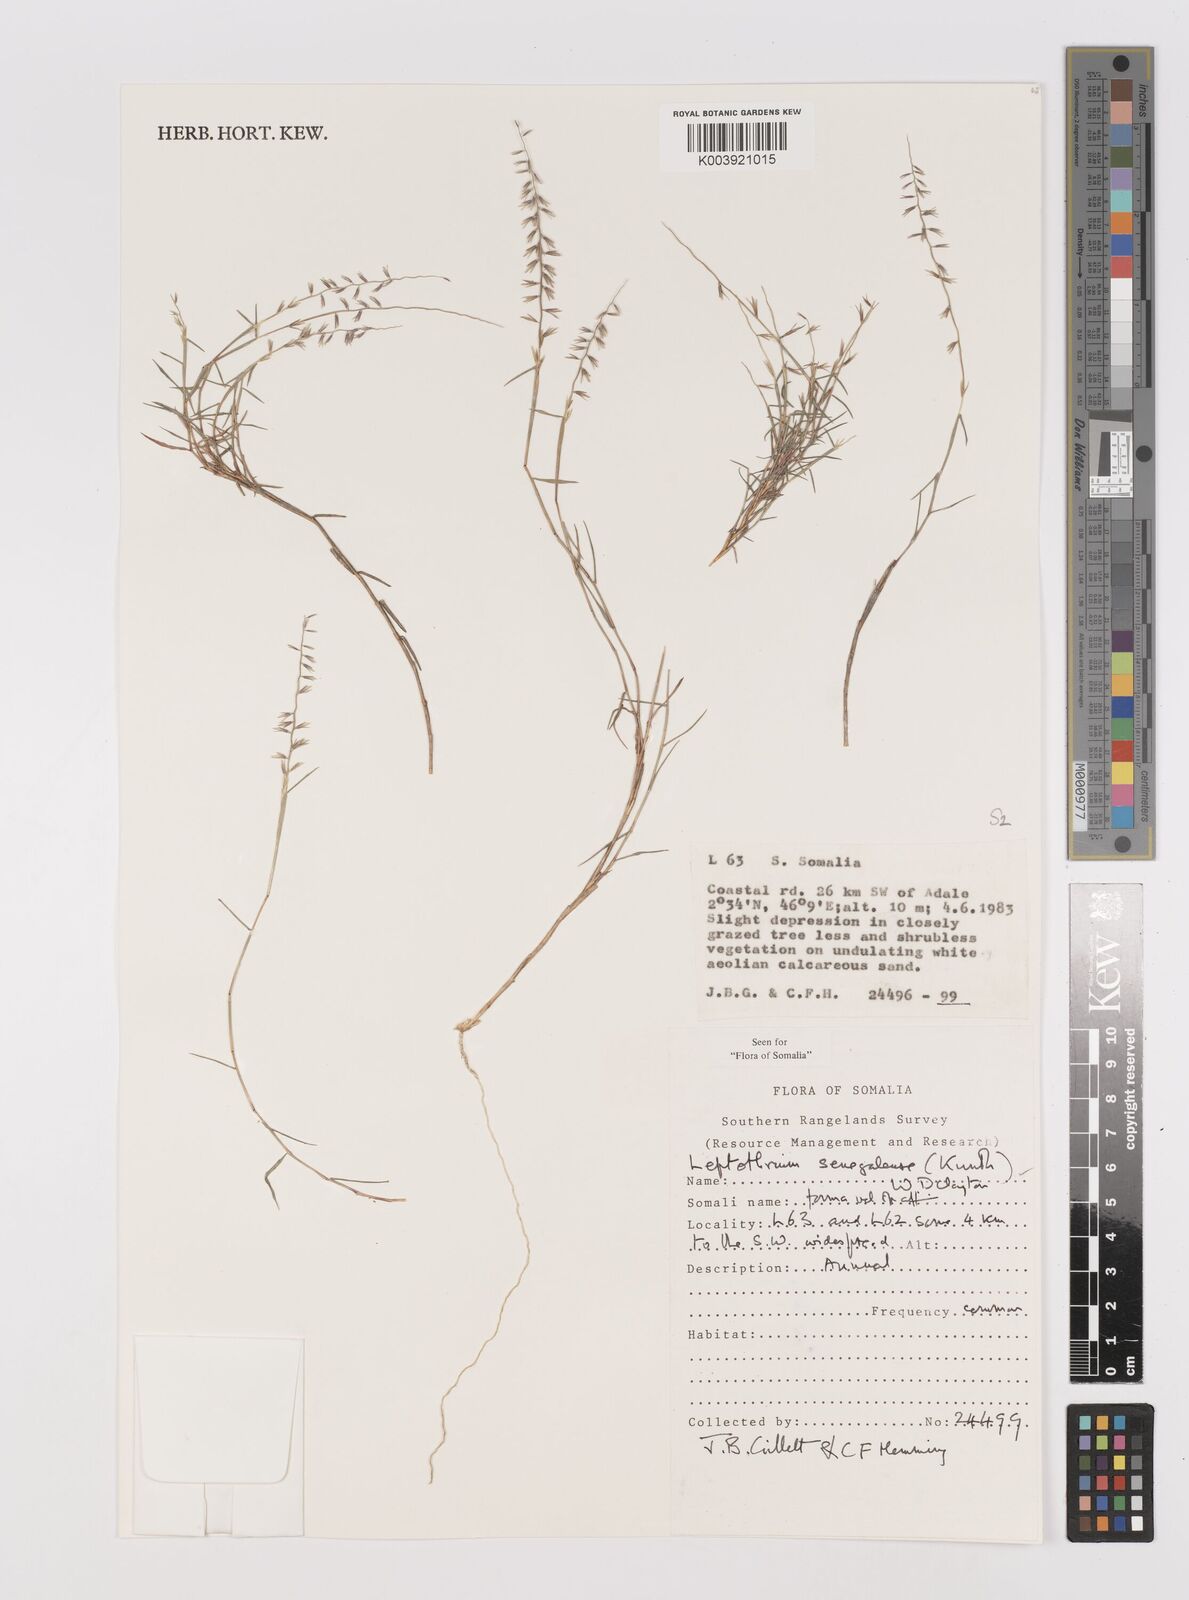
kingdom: Plantae
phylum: Tracheophyta
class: Liliopsida
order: Poales
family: Poaceae
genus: Leptothrium
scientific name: Leptothrium senegalense
